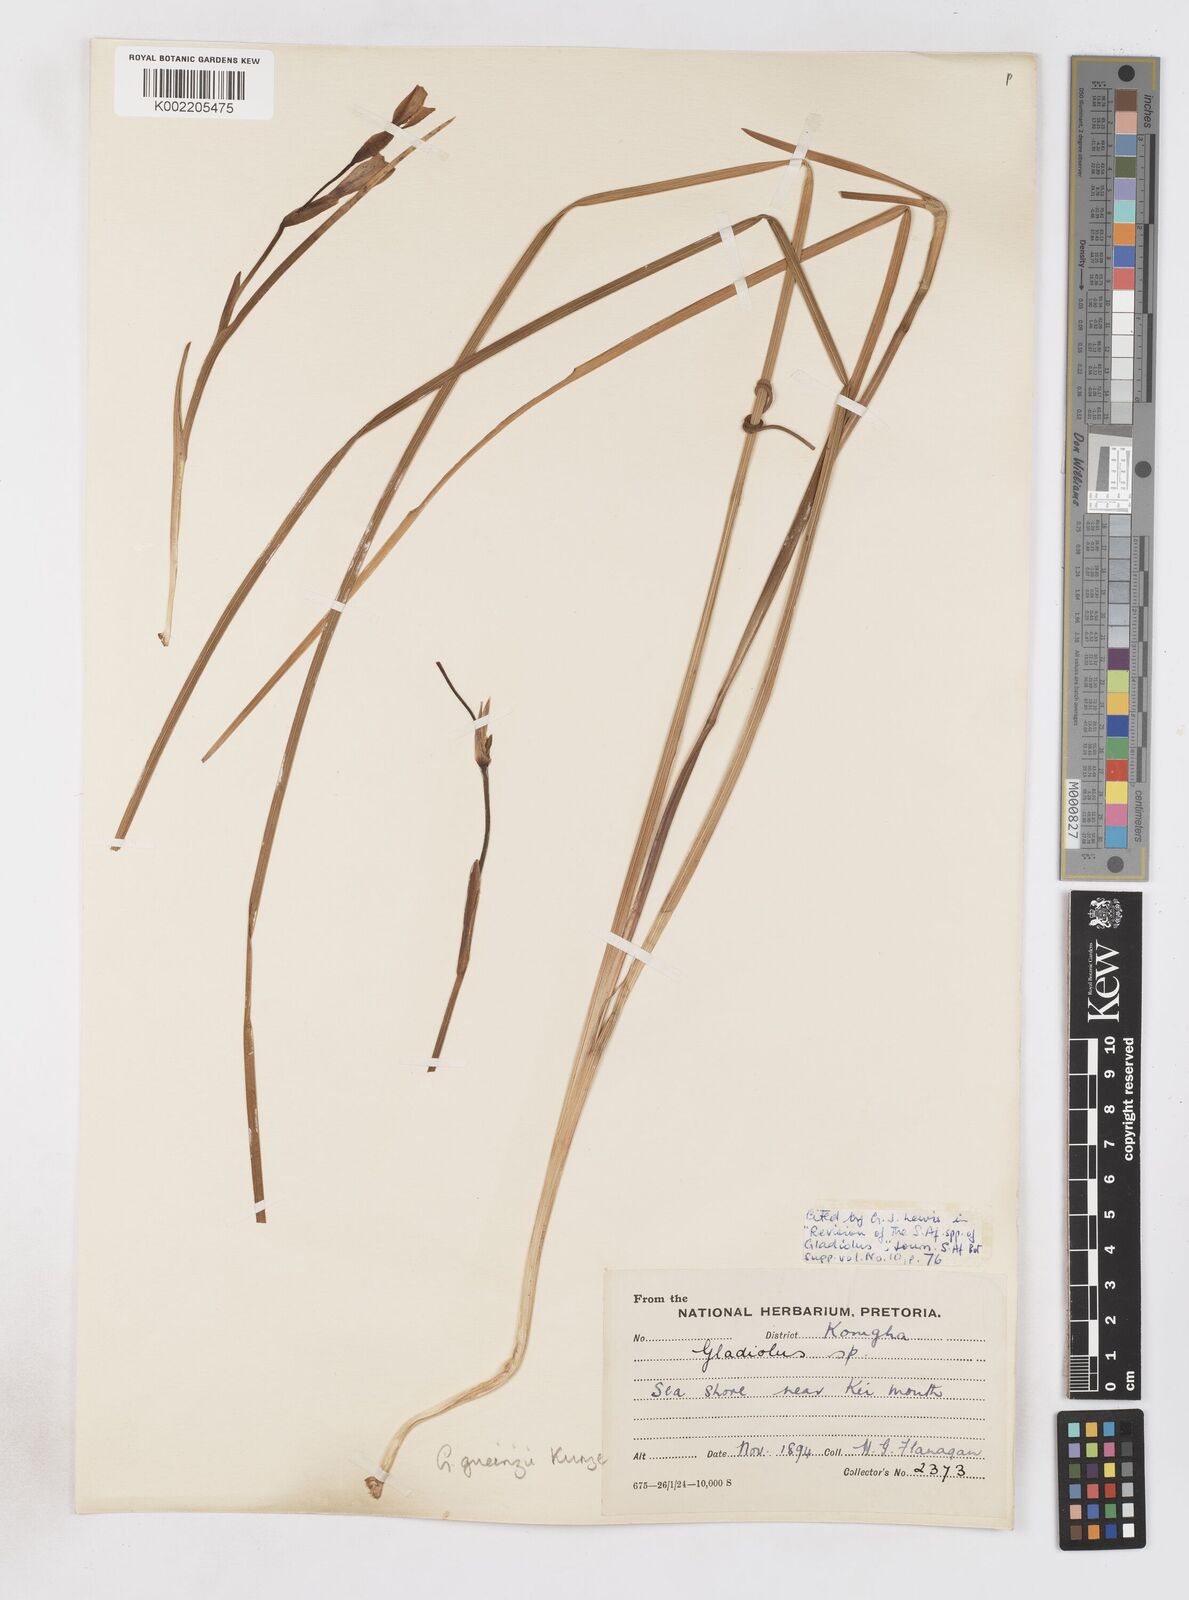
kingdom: Plantae
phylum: Tracheophyta
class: Liliopsida
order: Asparagales
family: Iridaceae
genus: Gladiolus
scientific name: Gladiolus gueinzii
